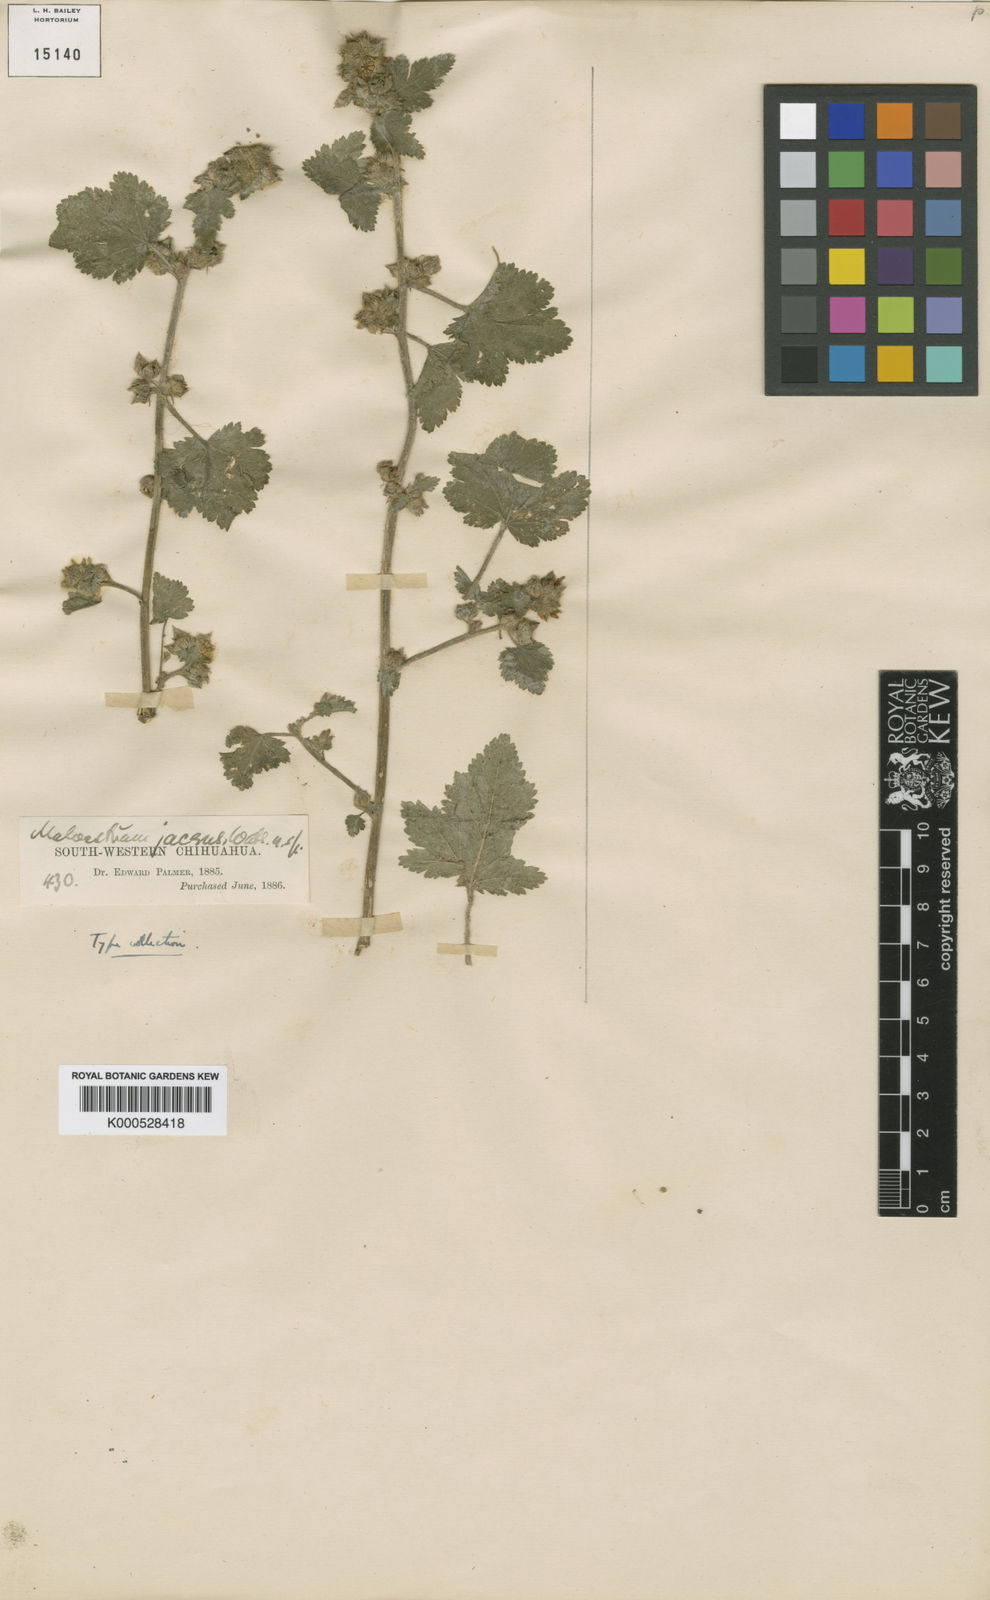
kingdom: Plantae
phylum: Tracheophyta
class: Magnoliopsida
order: Malvales
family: Malvaceae
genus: Fuertesimalva
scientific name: Fuertesimalva jacens
